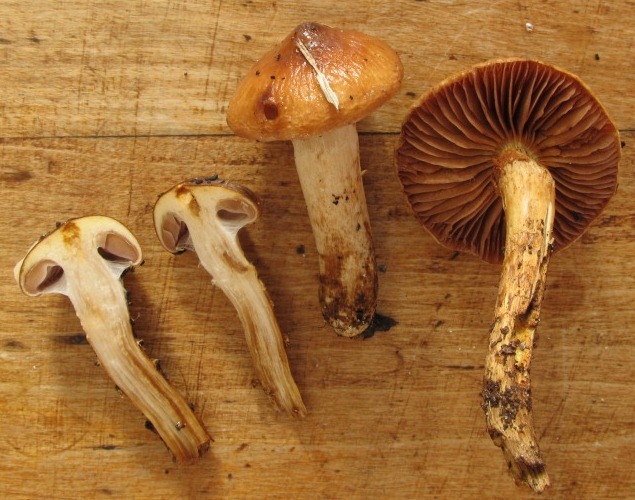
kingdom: Fungi
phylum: Basidiomycota
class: Agaricomycetes
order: Agaricales
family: Cortinariaceae
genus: Cortinarius
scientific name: Cortinarius trivialis
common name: brunslimet slørhat
